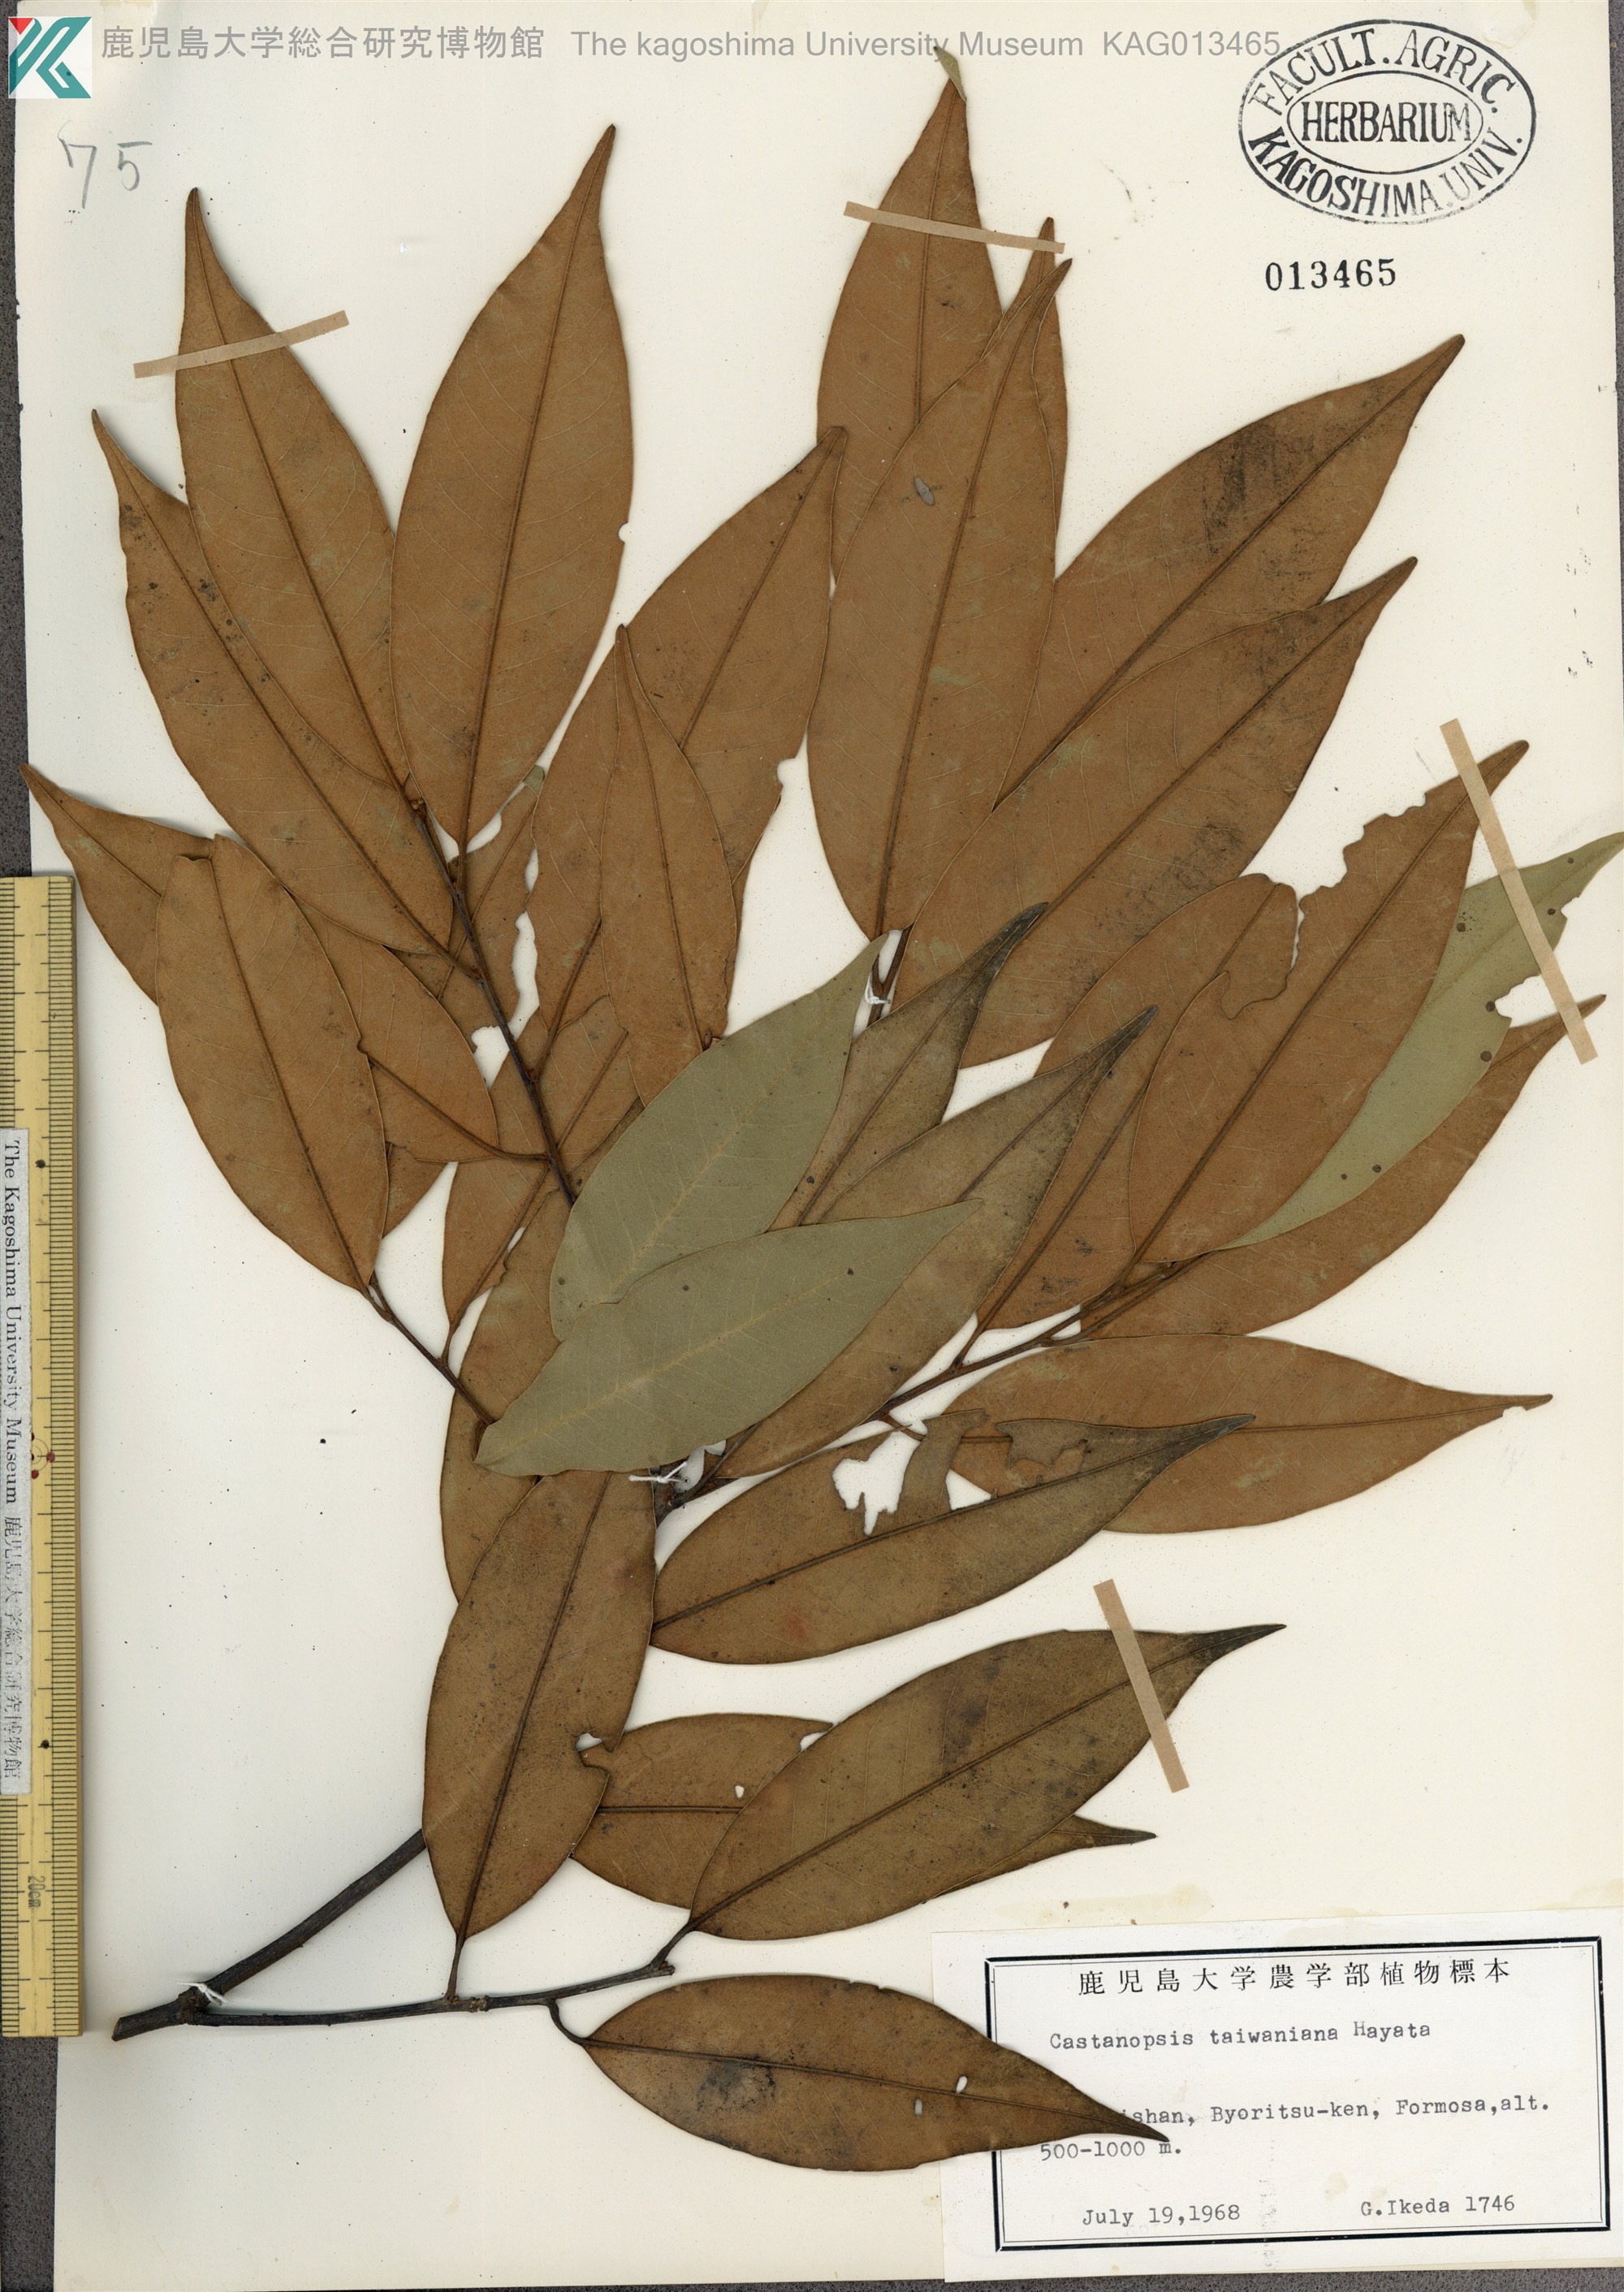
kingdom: Plantae
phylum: Tracheophyta
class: Magnoliopsida
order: Fagales
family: Fagaceae
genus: Castanopsis
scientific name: Castanopsis fargesii
